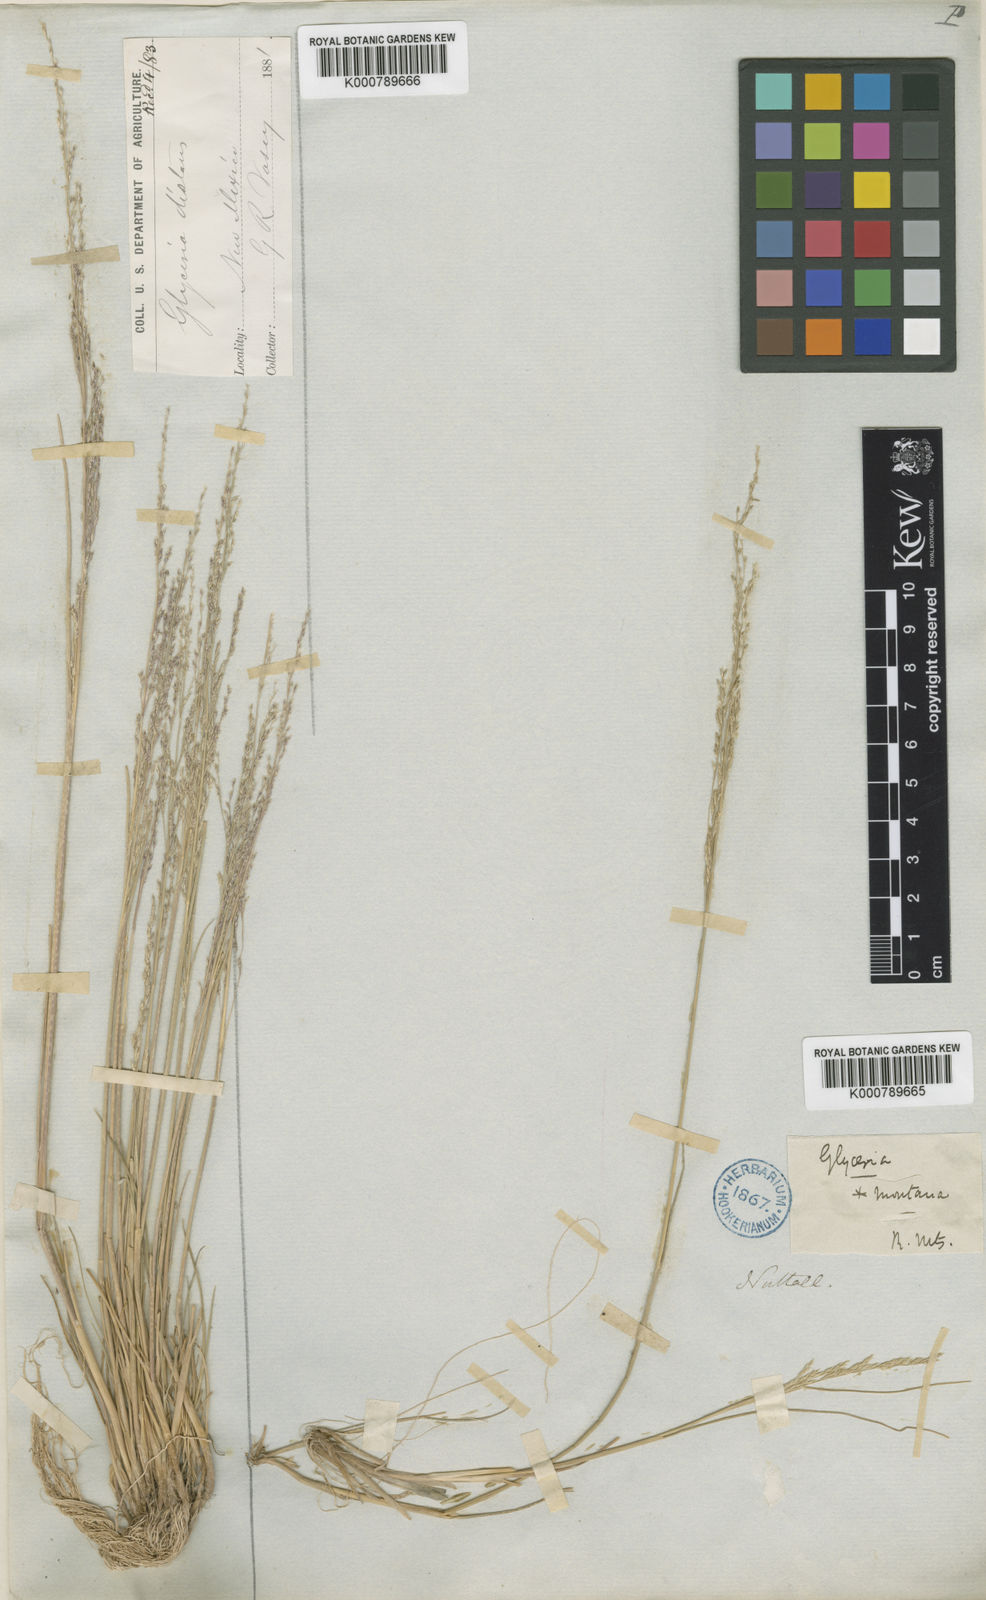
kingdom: Plantae
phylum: Tracheophyta
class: Liliopsida
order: Poales
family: Poaceae
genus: Puccinellia
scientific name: Puccinellia nuttalliana
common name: Nuttall's alkali grass
